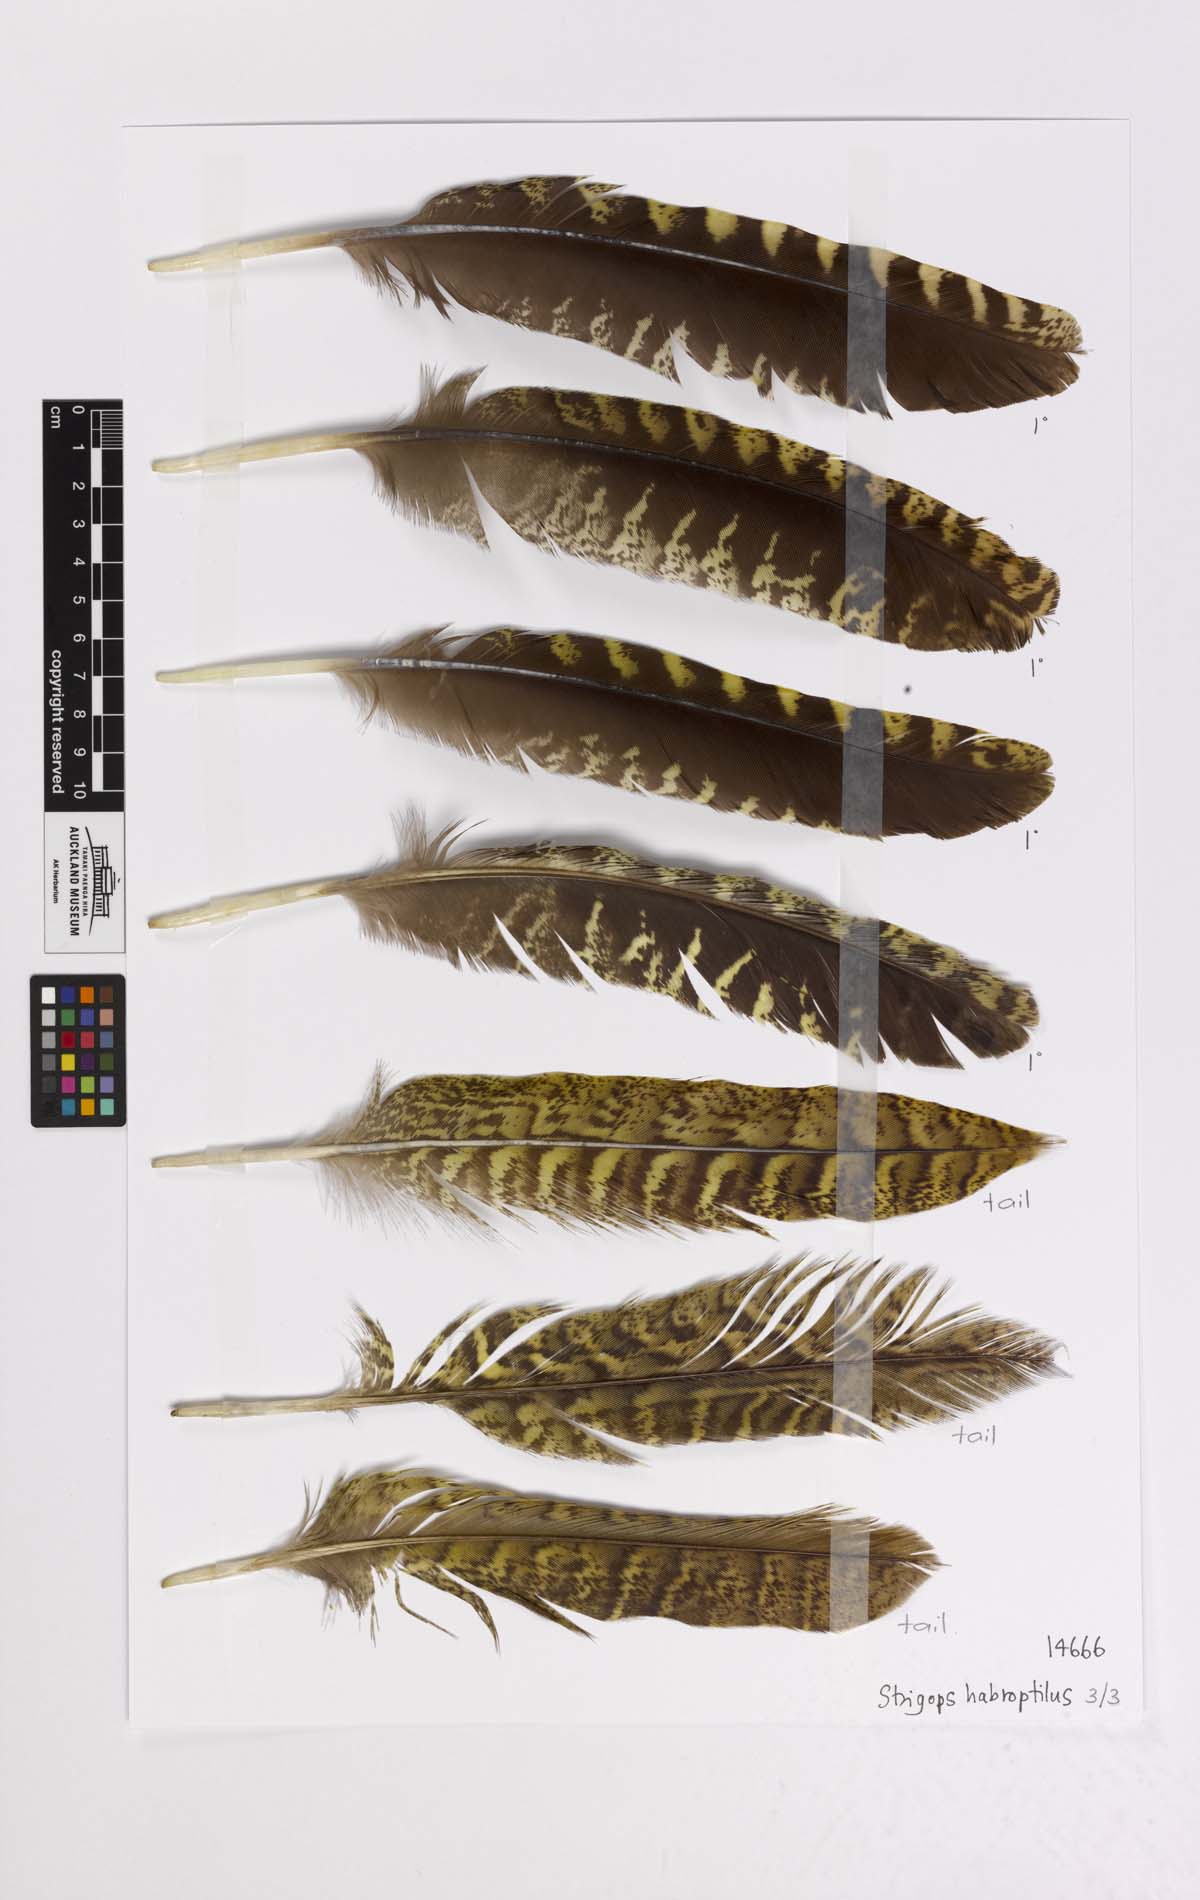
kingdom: Animalia
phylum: Chordata
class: Aves
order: Psittaciformes
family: Psittacidae
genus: Strigops
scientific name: Strigops habroptila
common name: Kakapo
